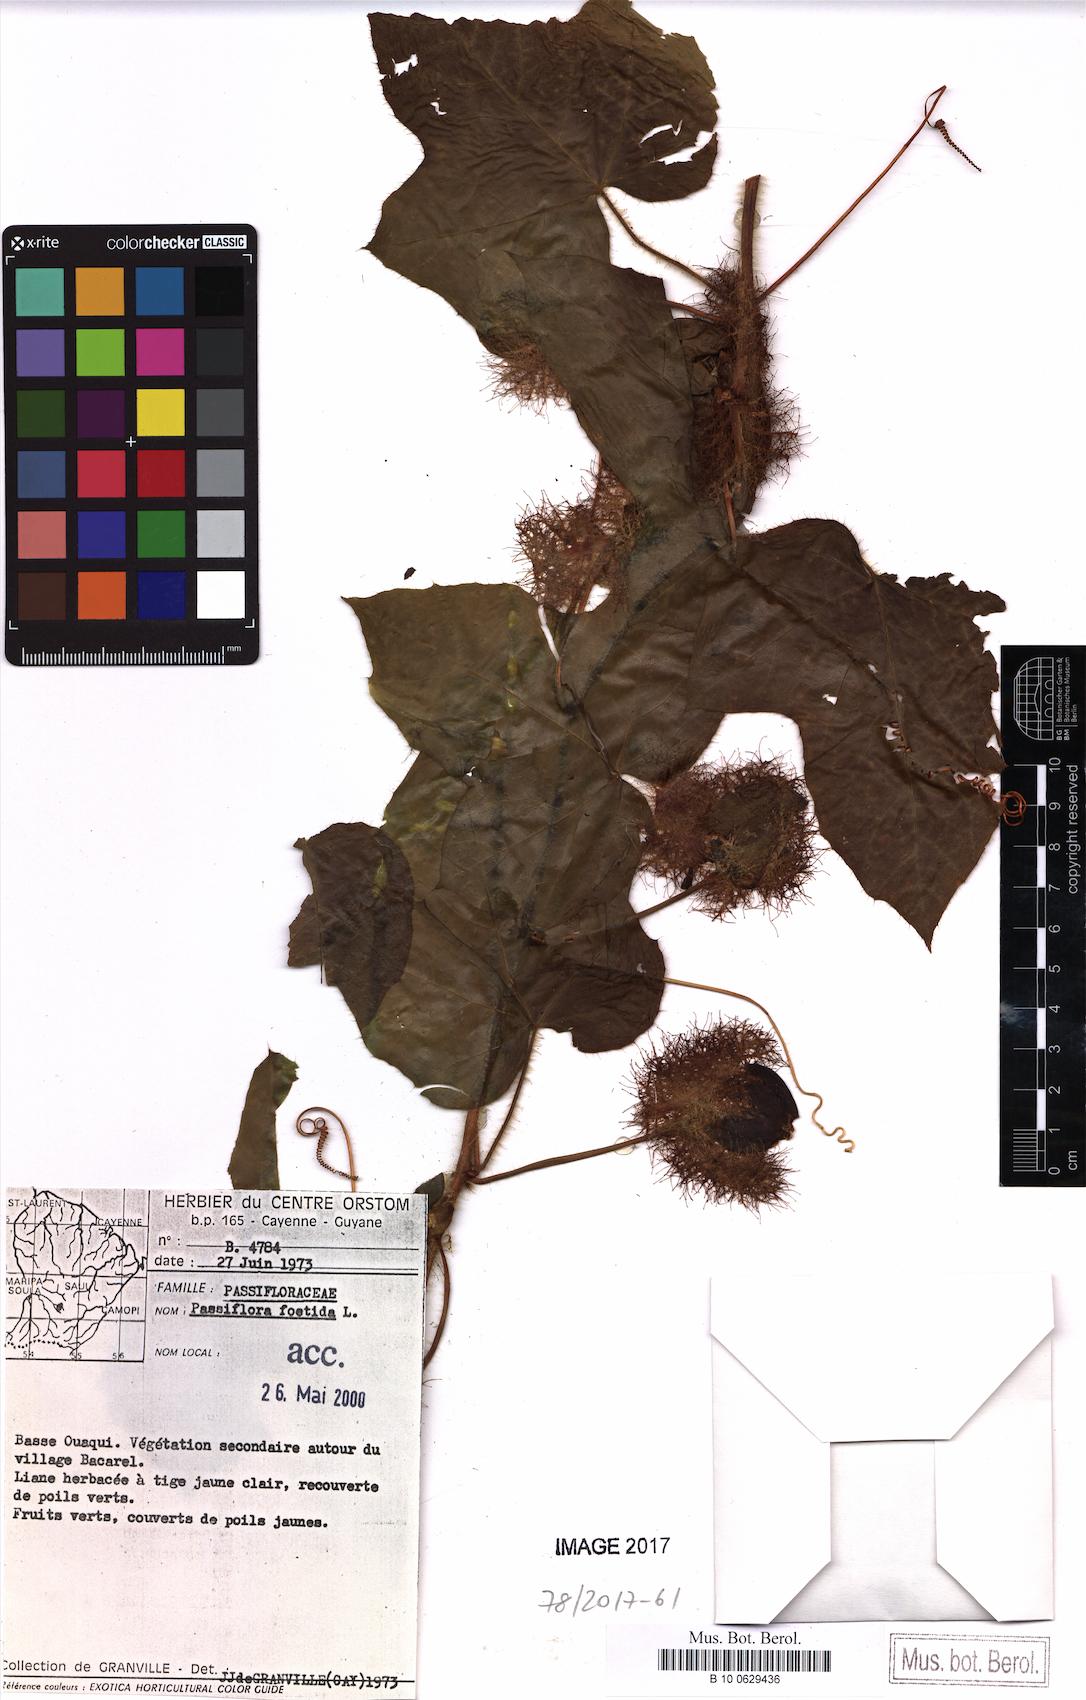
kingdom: Plantae
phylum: Tracheophyta
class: Magnoliopsida
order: Malpighiales
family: Passifloraceae
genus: Passiflora
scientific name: Passiflora foetida
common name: Fetid passionflower
